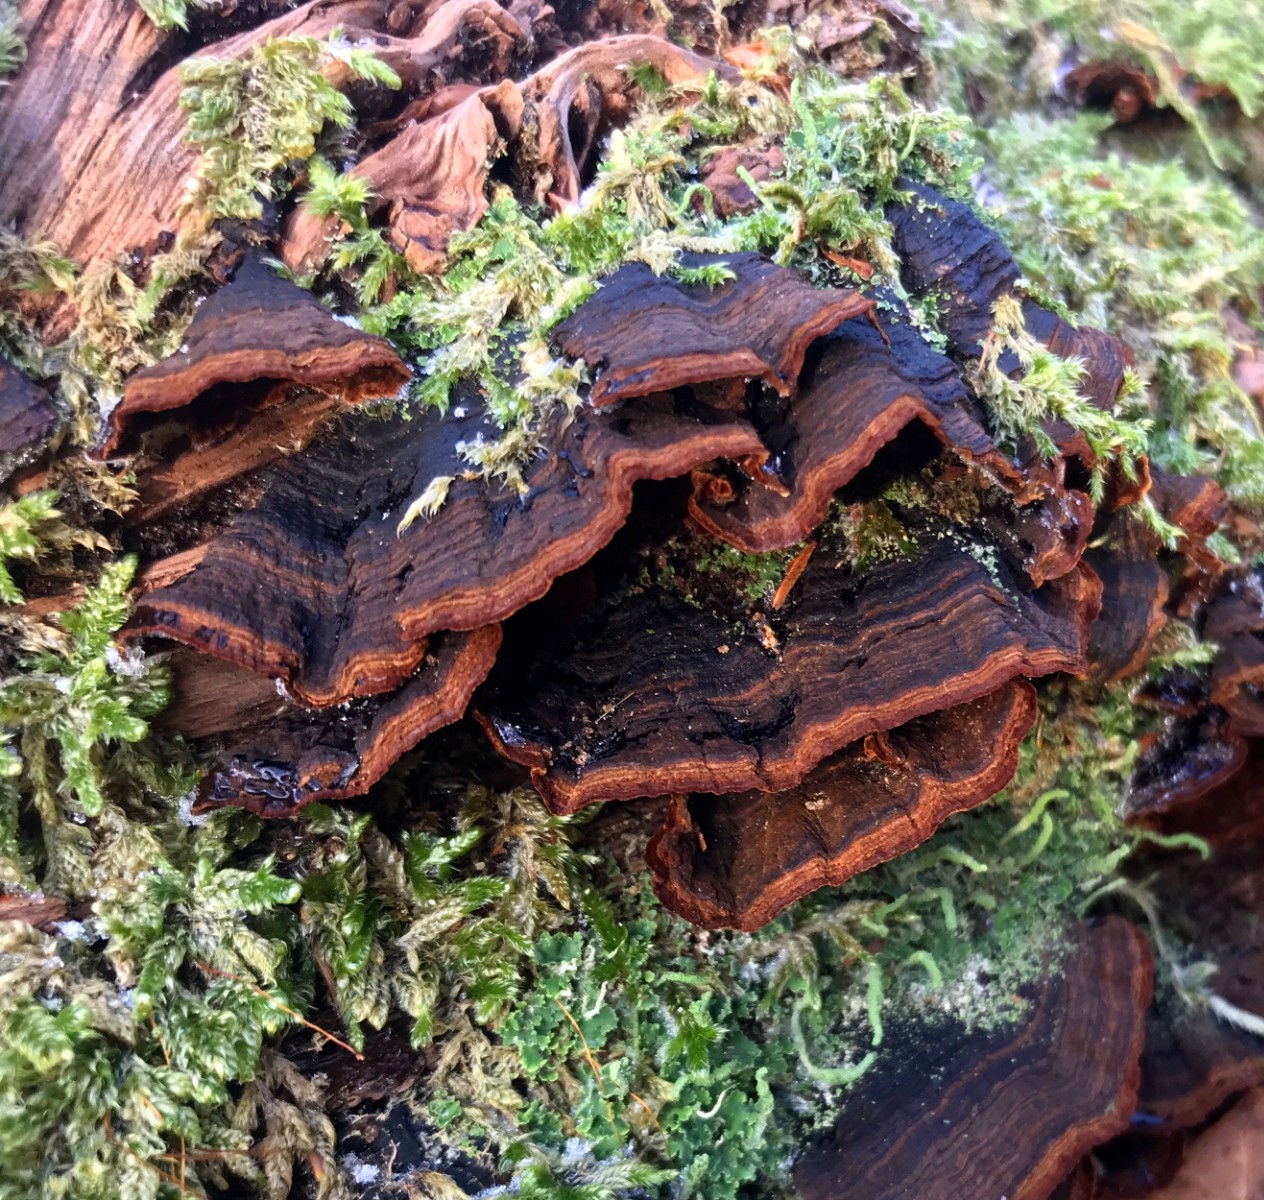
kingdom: Fungi
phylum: Basidiomycota
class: Agaricomycetes
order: Hymenochaetales
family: Hymenochaetaceae
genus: Hymenochaete
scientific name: Hymenochaete rubiginosa
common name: stiv ruslædersvamp
